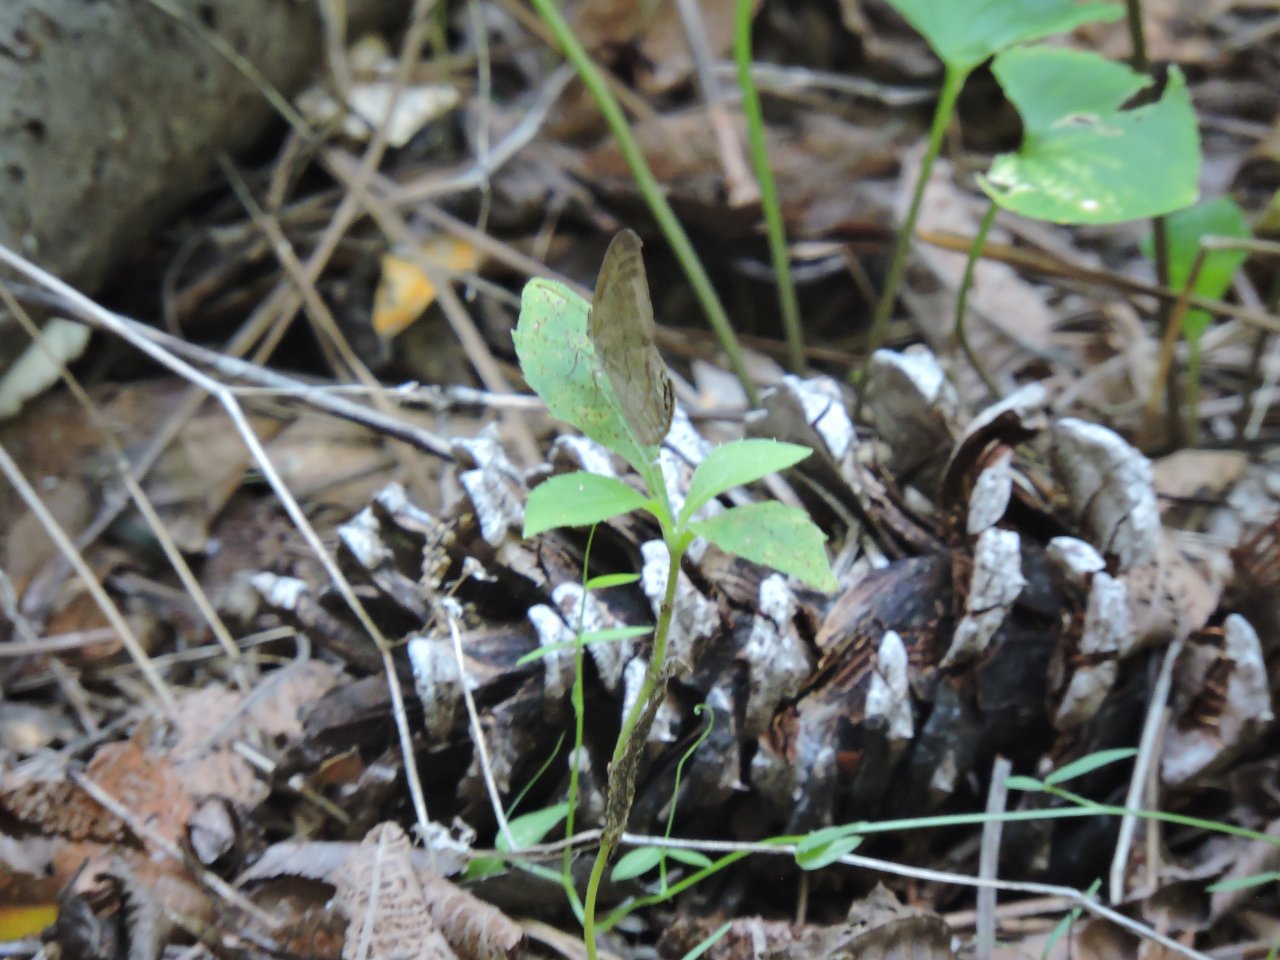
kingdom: Animalia
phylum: Arthropoda
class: Insecta
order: Lepidoptera
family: Nymphalidae
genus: Euptychia
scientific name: Euptychia cornelius
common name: Gemmed Satyr
